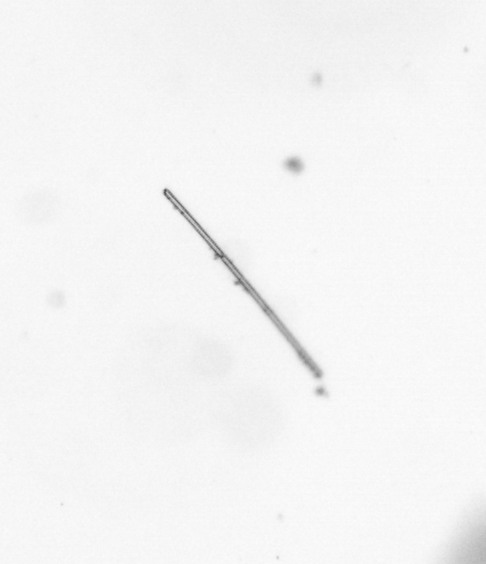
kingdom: Chromista
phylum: Ochrophyta
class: Bacillariophyceae
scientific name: Bacillariophyceae
